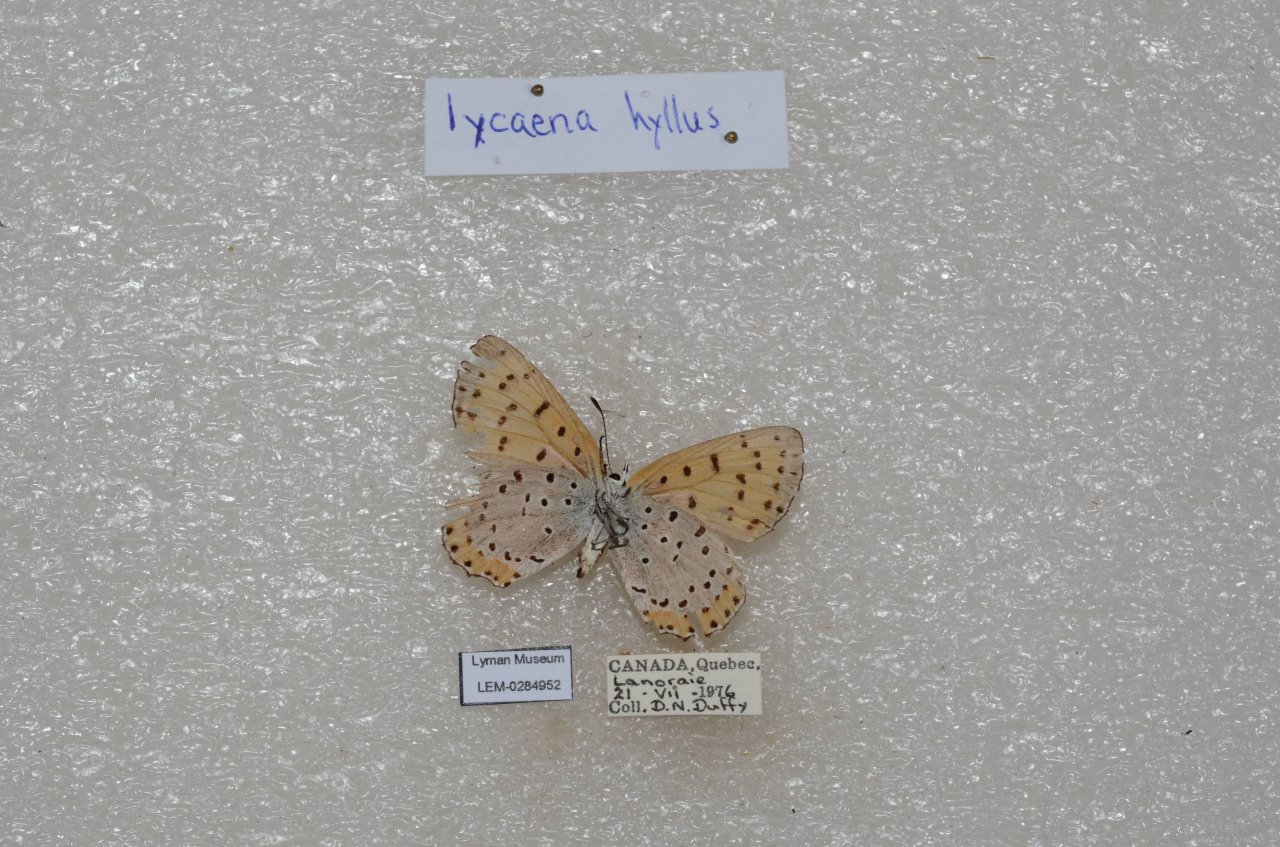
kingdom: Animalia
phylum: Arthropoda
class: Insecta
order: Lepidoptera
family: Sesiidae
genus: Sesia
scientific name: Sesia Lycaena hyllus
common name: Bronze Copper
